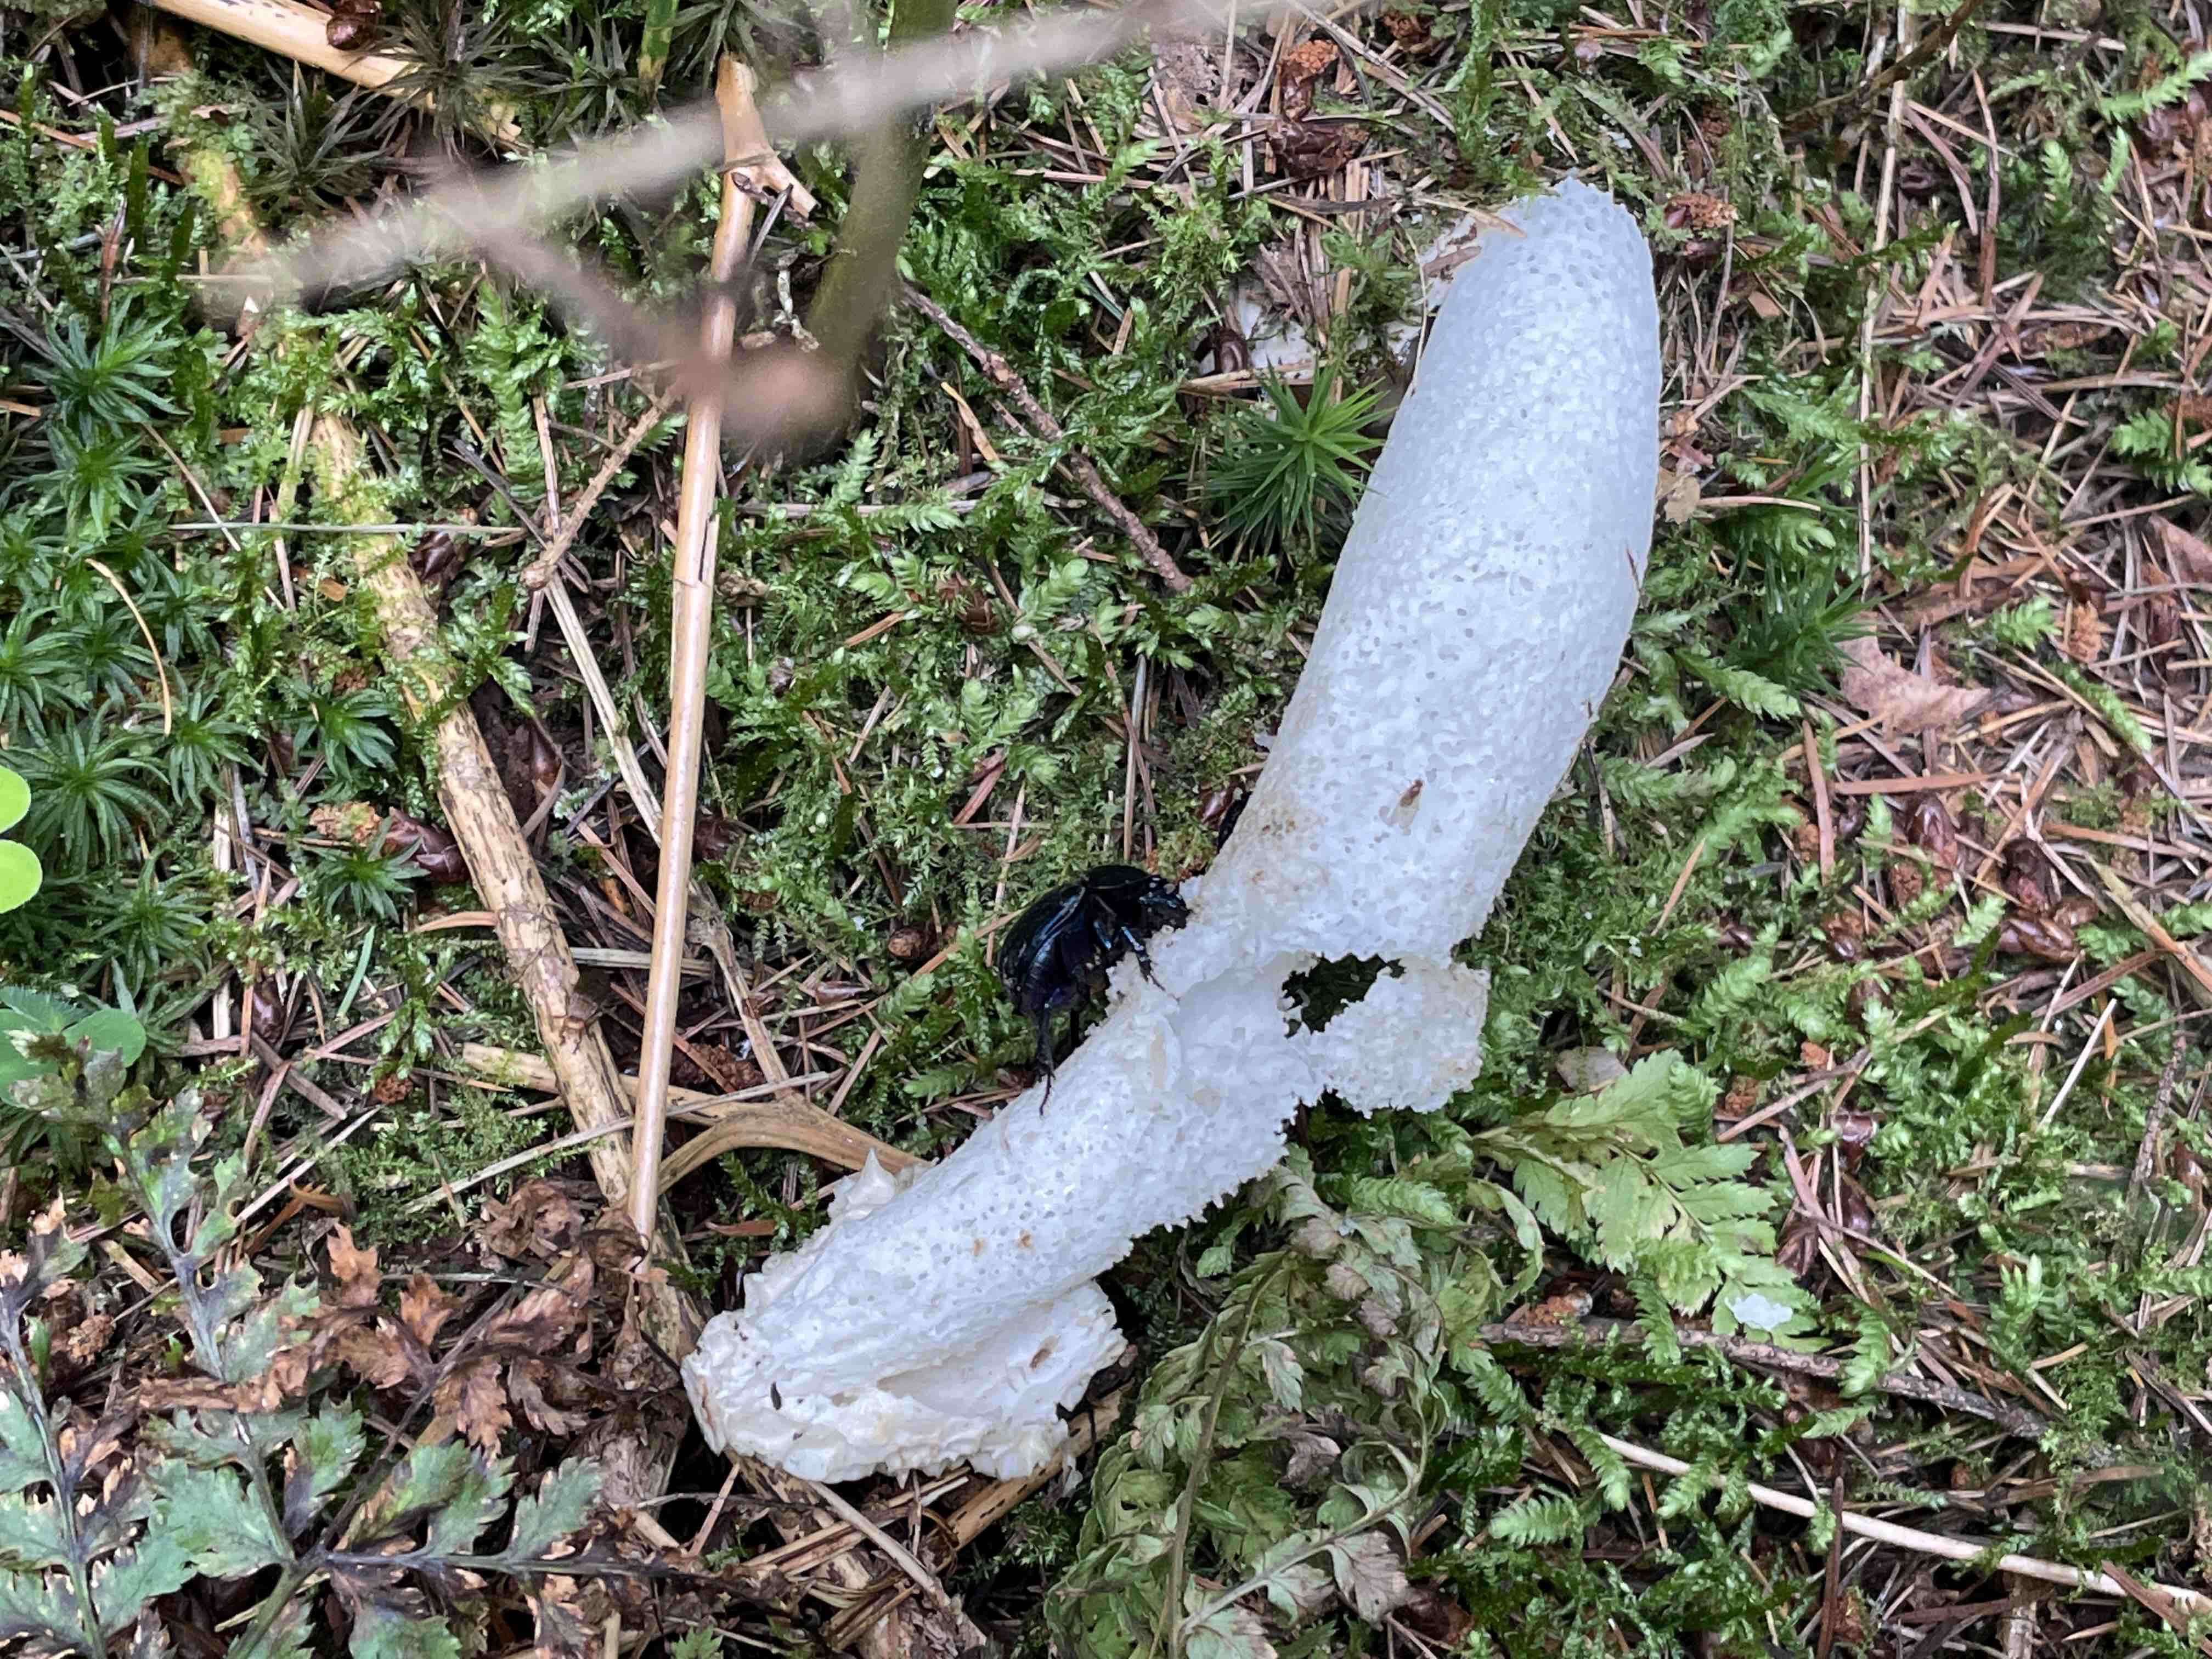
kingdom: Fungi
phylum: Basidiomycota
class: Agaricomycetes
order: Phallales
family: Phallaceae
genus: Phallus
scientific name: Phallus impudicus
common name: almindelig stinksvamp
